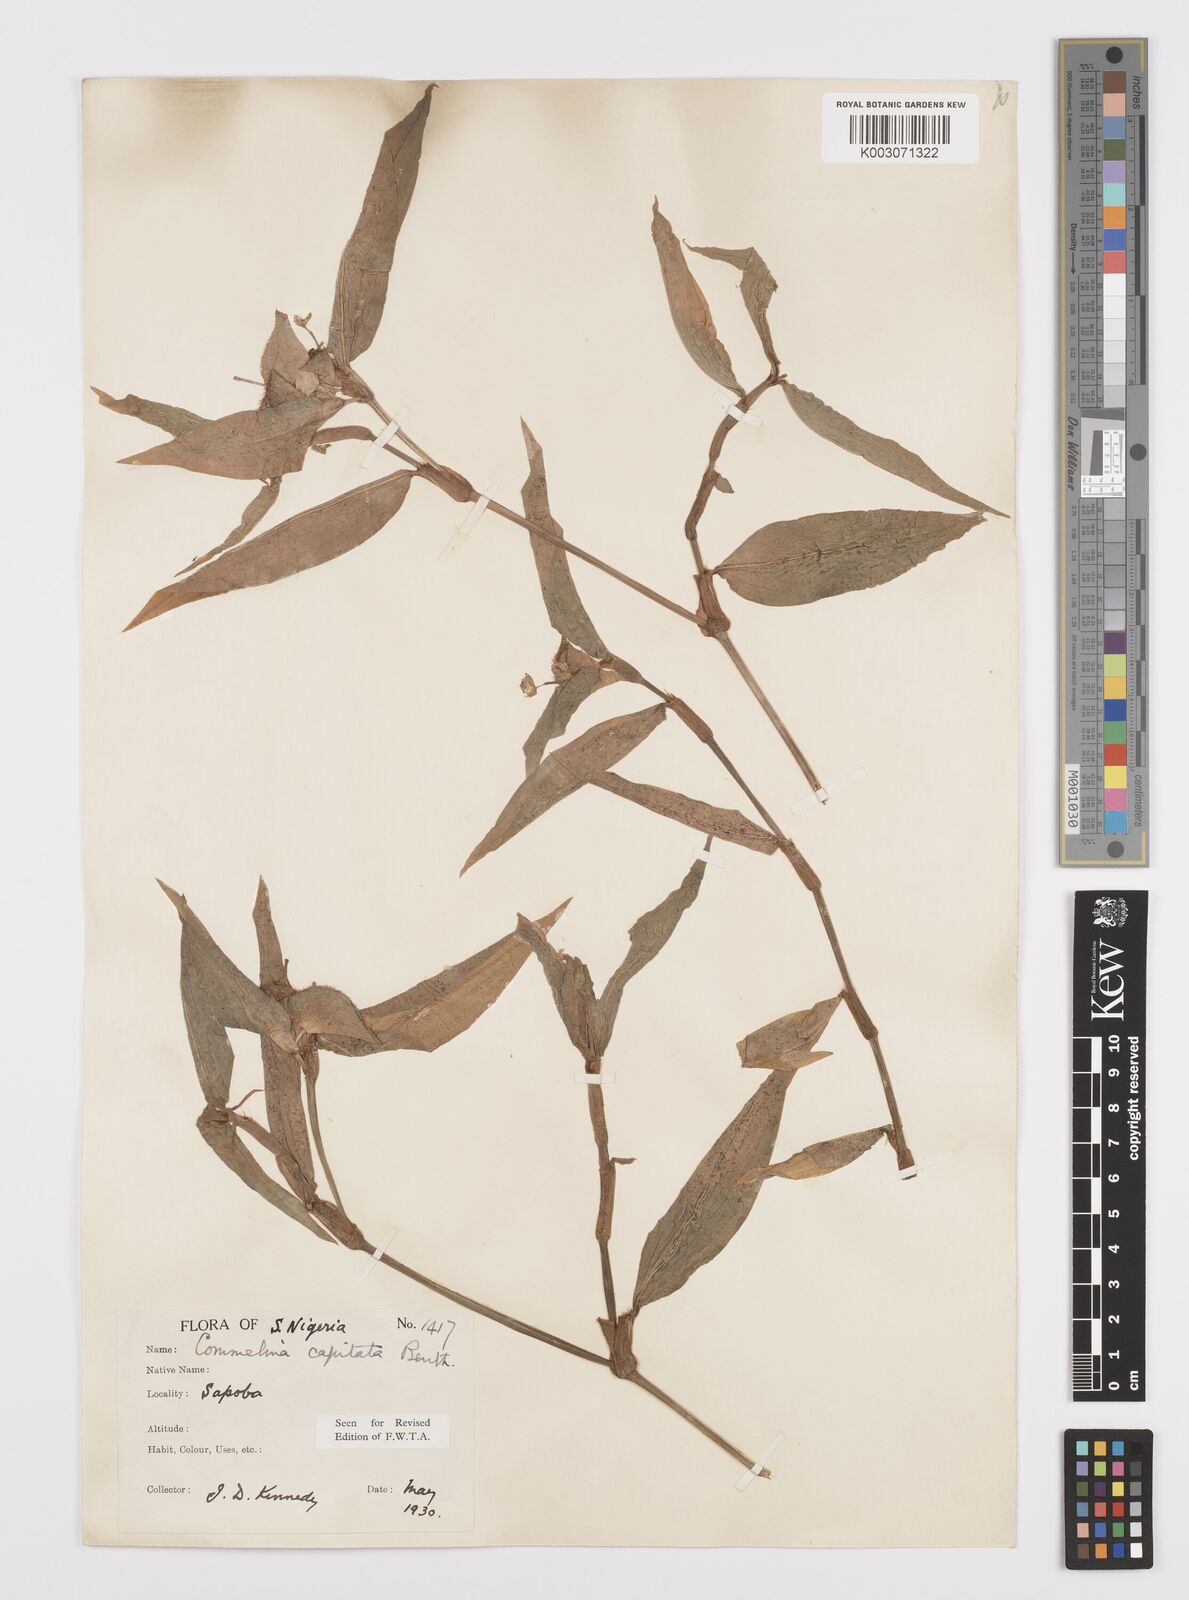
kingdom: Plantae
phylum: Tracheophyta
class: Liliopsida
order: Commelinales
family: Commelinaceae
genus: Commelina
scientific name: Commelina capitata
